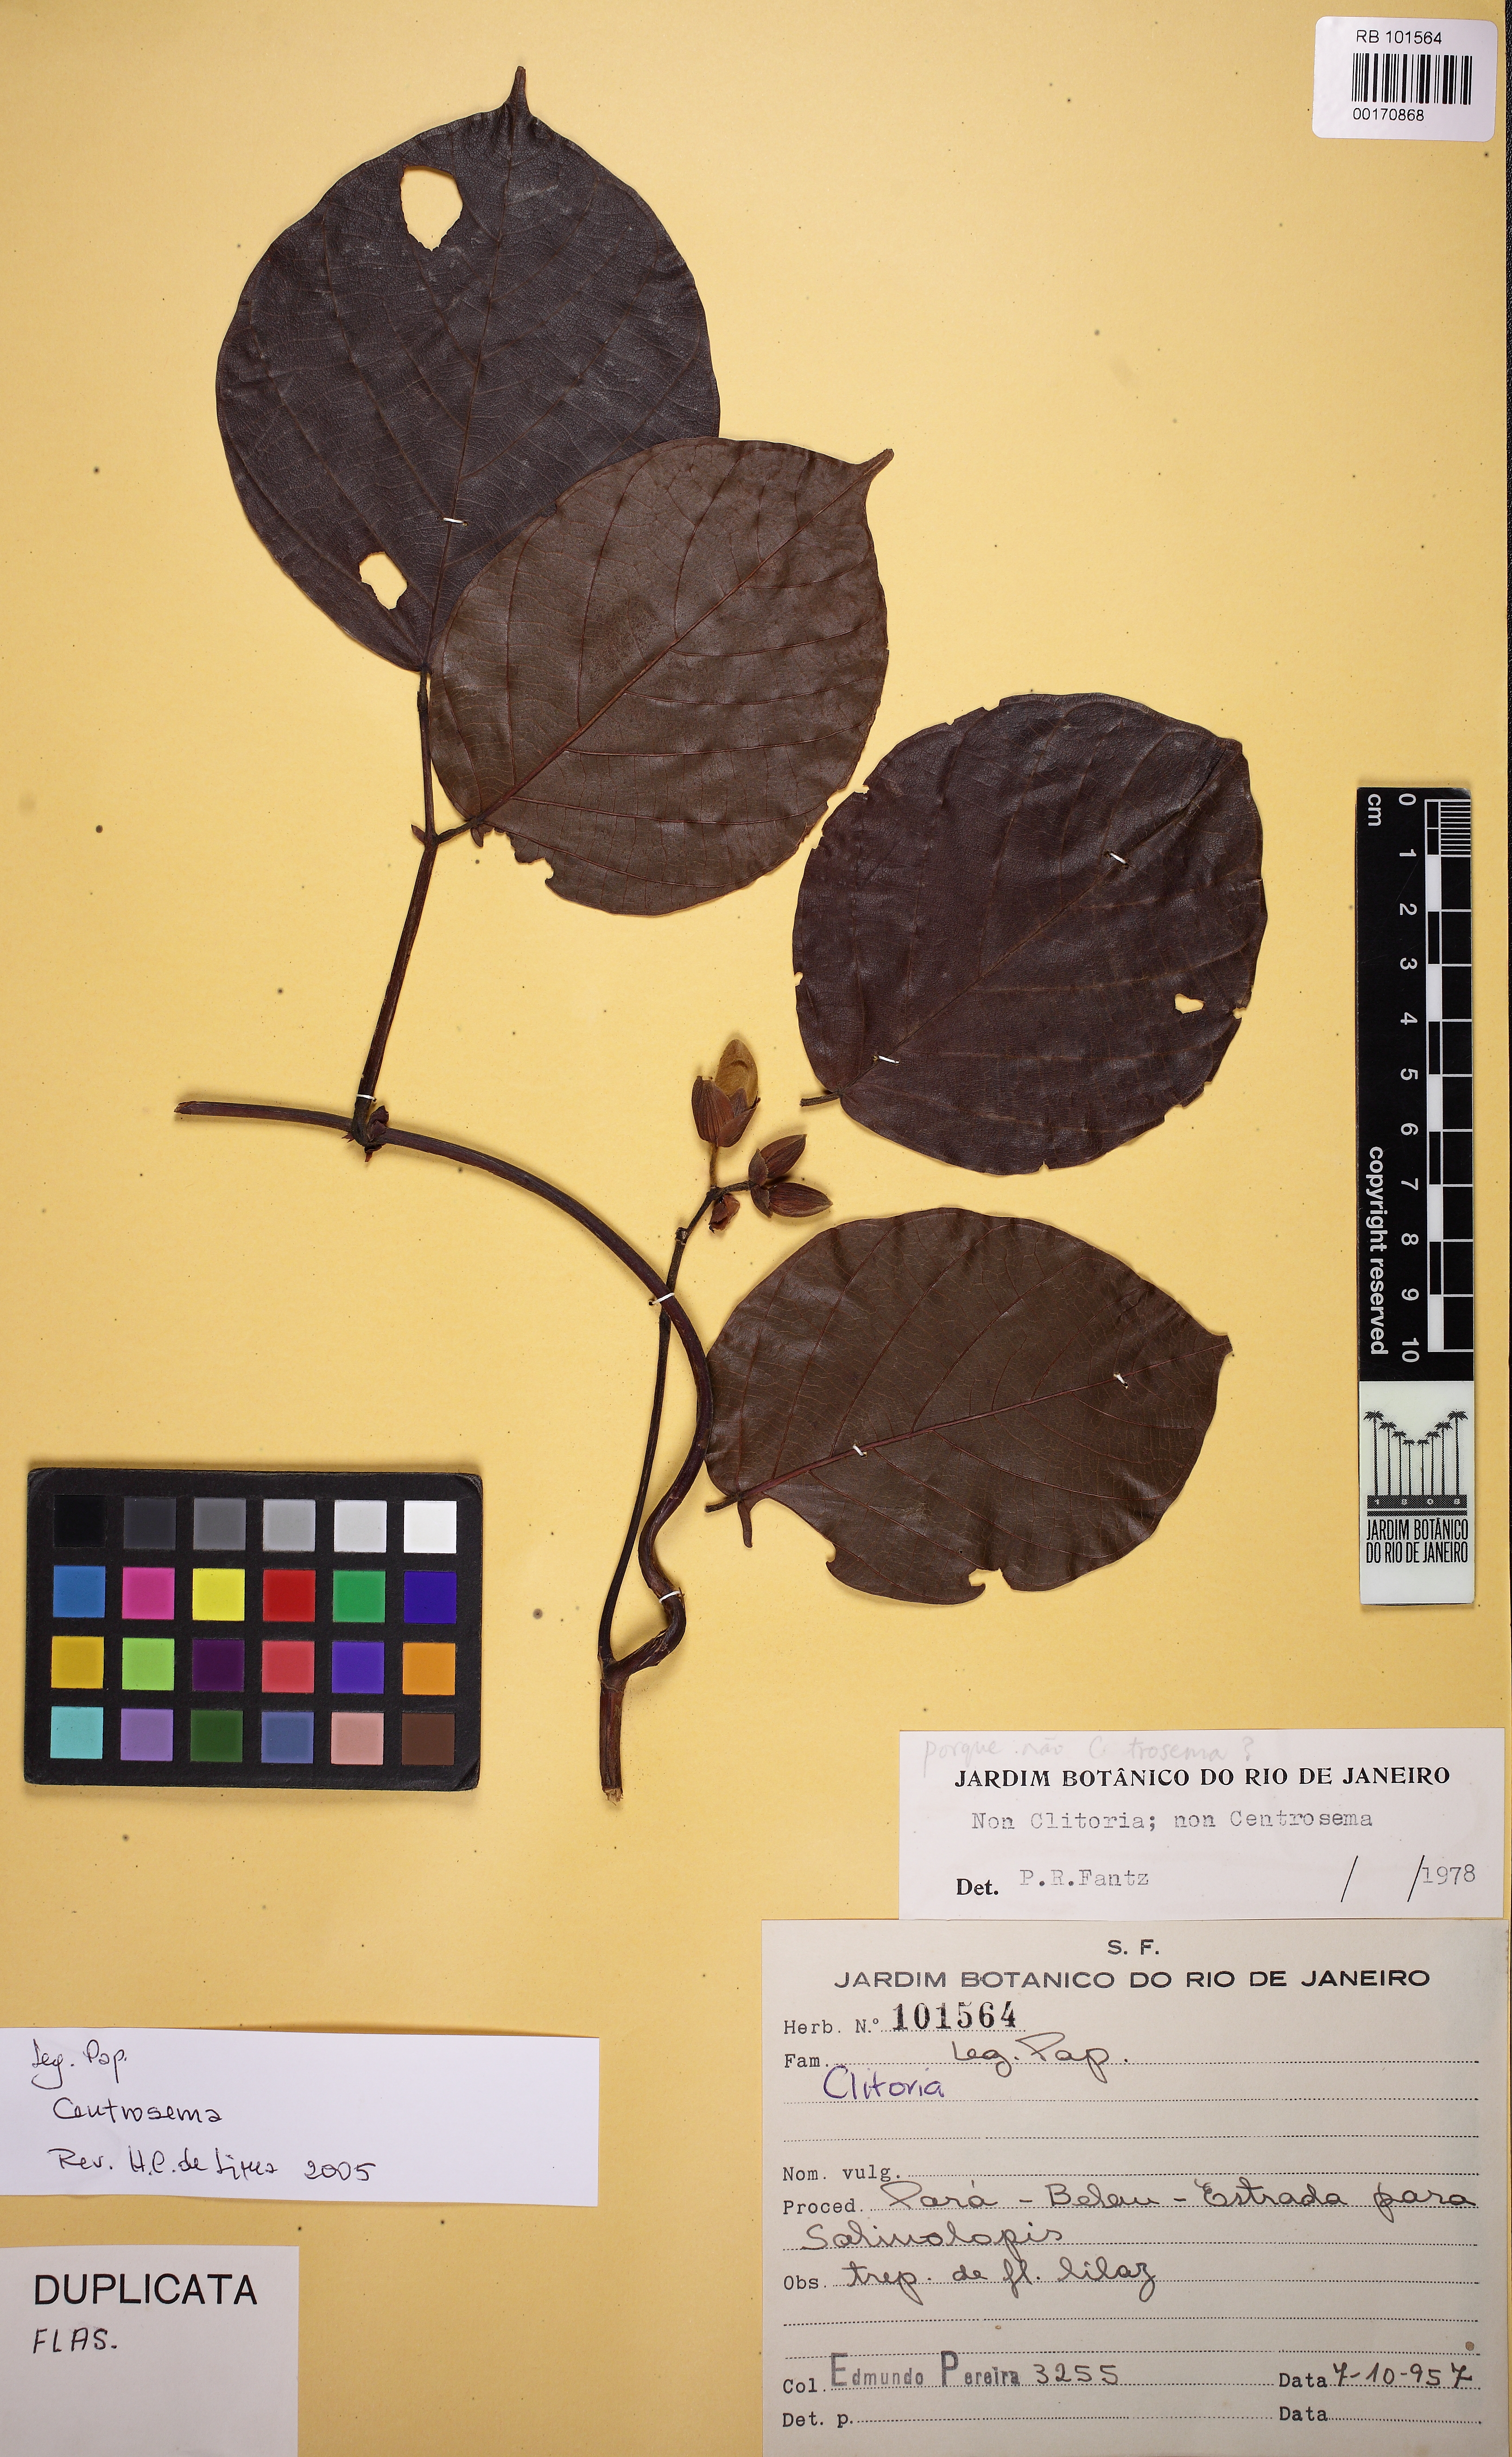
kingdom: Plantae
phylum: Tracheophyta
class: Magnoliopsida
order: Fabales
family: Fabaceae
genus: Clitoria
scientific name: Clitoria
